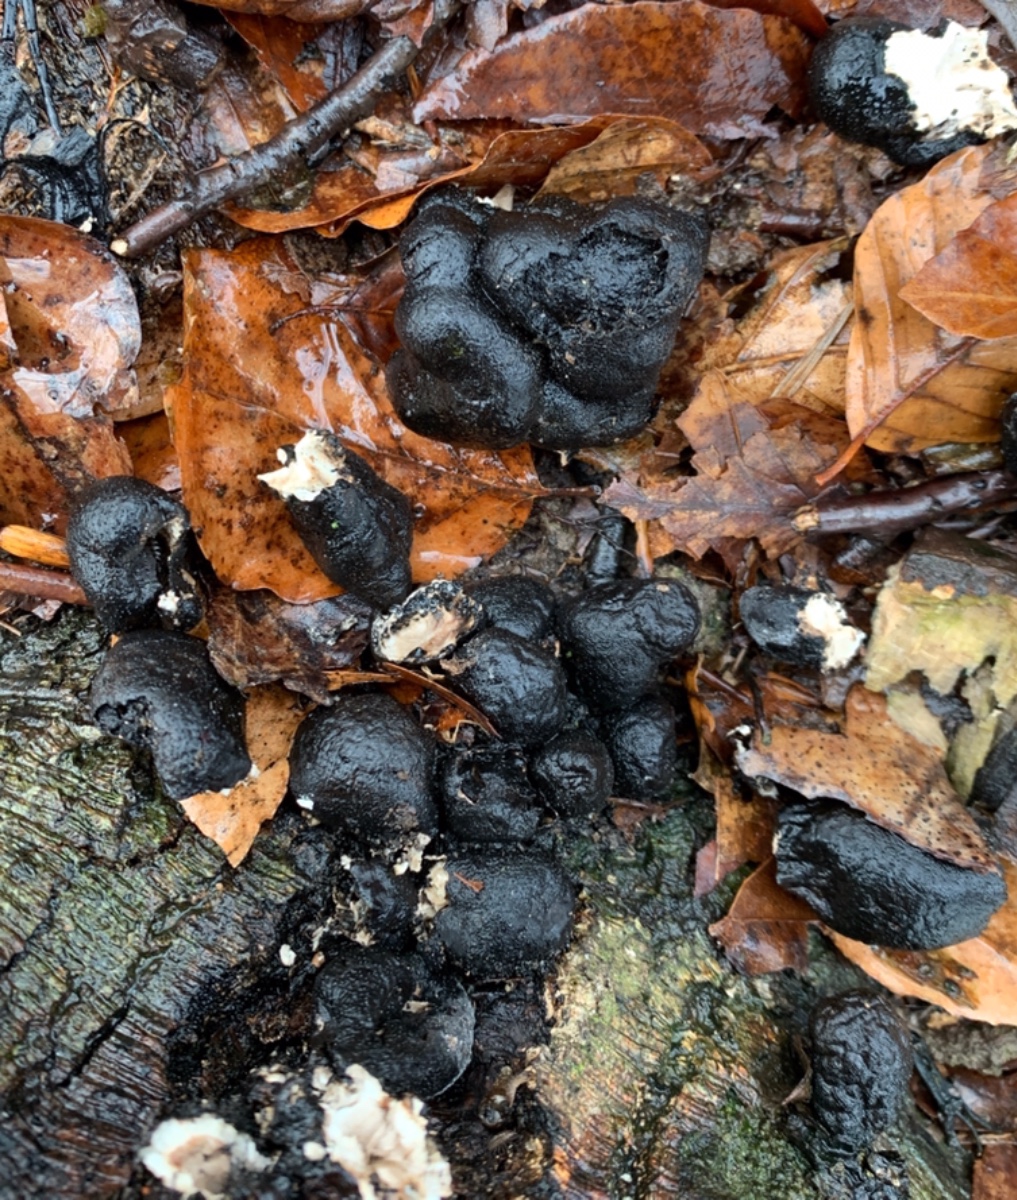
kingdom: Fungi
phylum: Ascomycota
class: Sordariomycetes
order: Xylariales
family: Xylariaceae
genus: Xylaria
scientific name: Xylaria polymorpha
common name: kølle-stødsvamp
